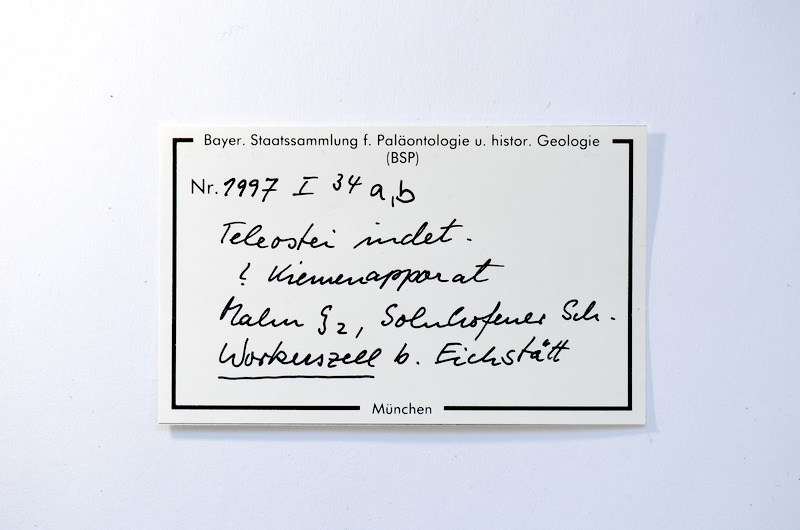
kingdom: Animalia
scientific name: Animalia
